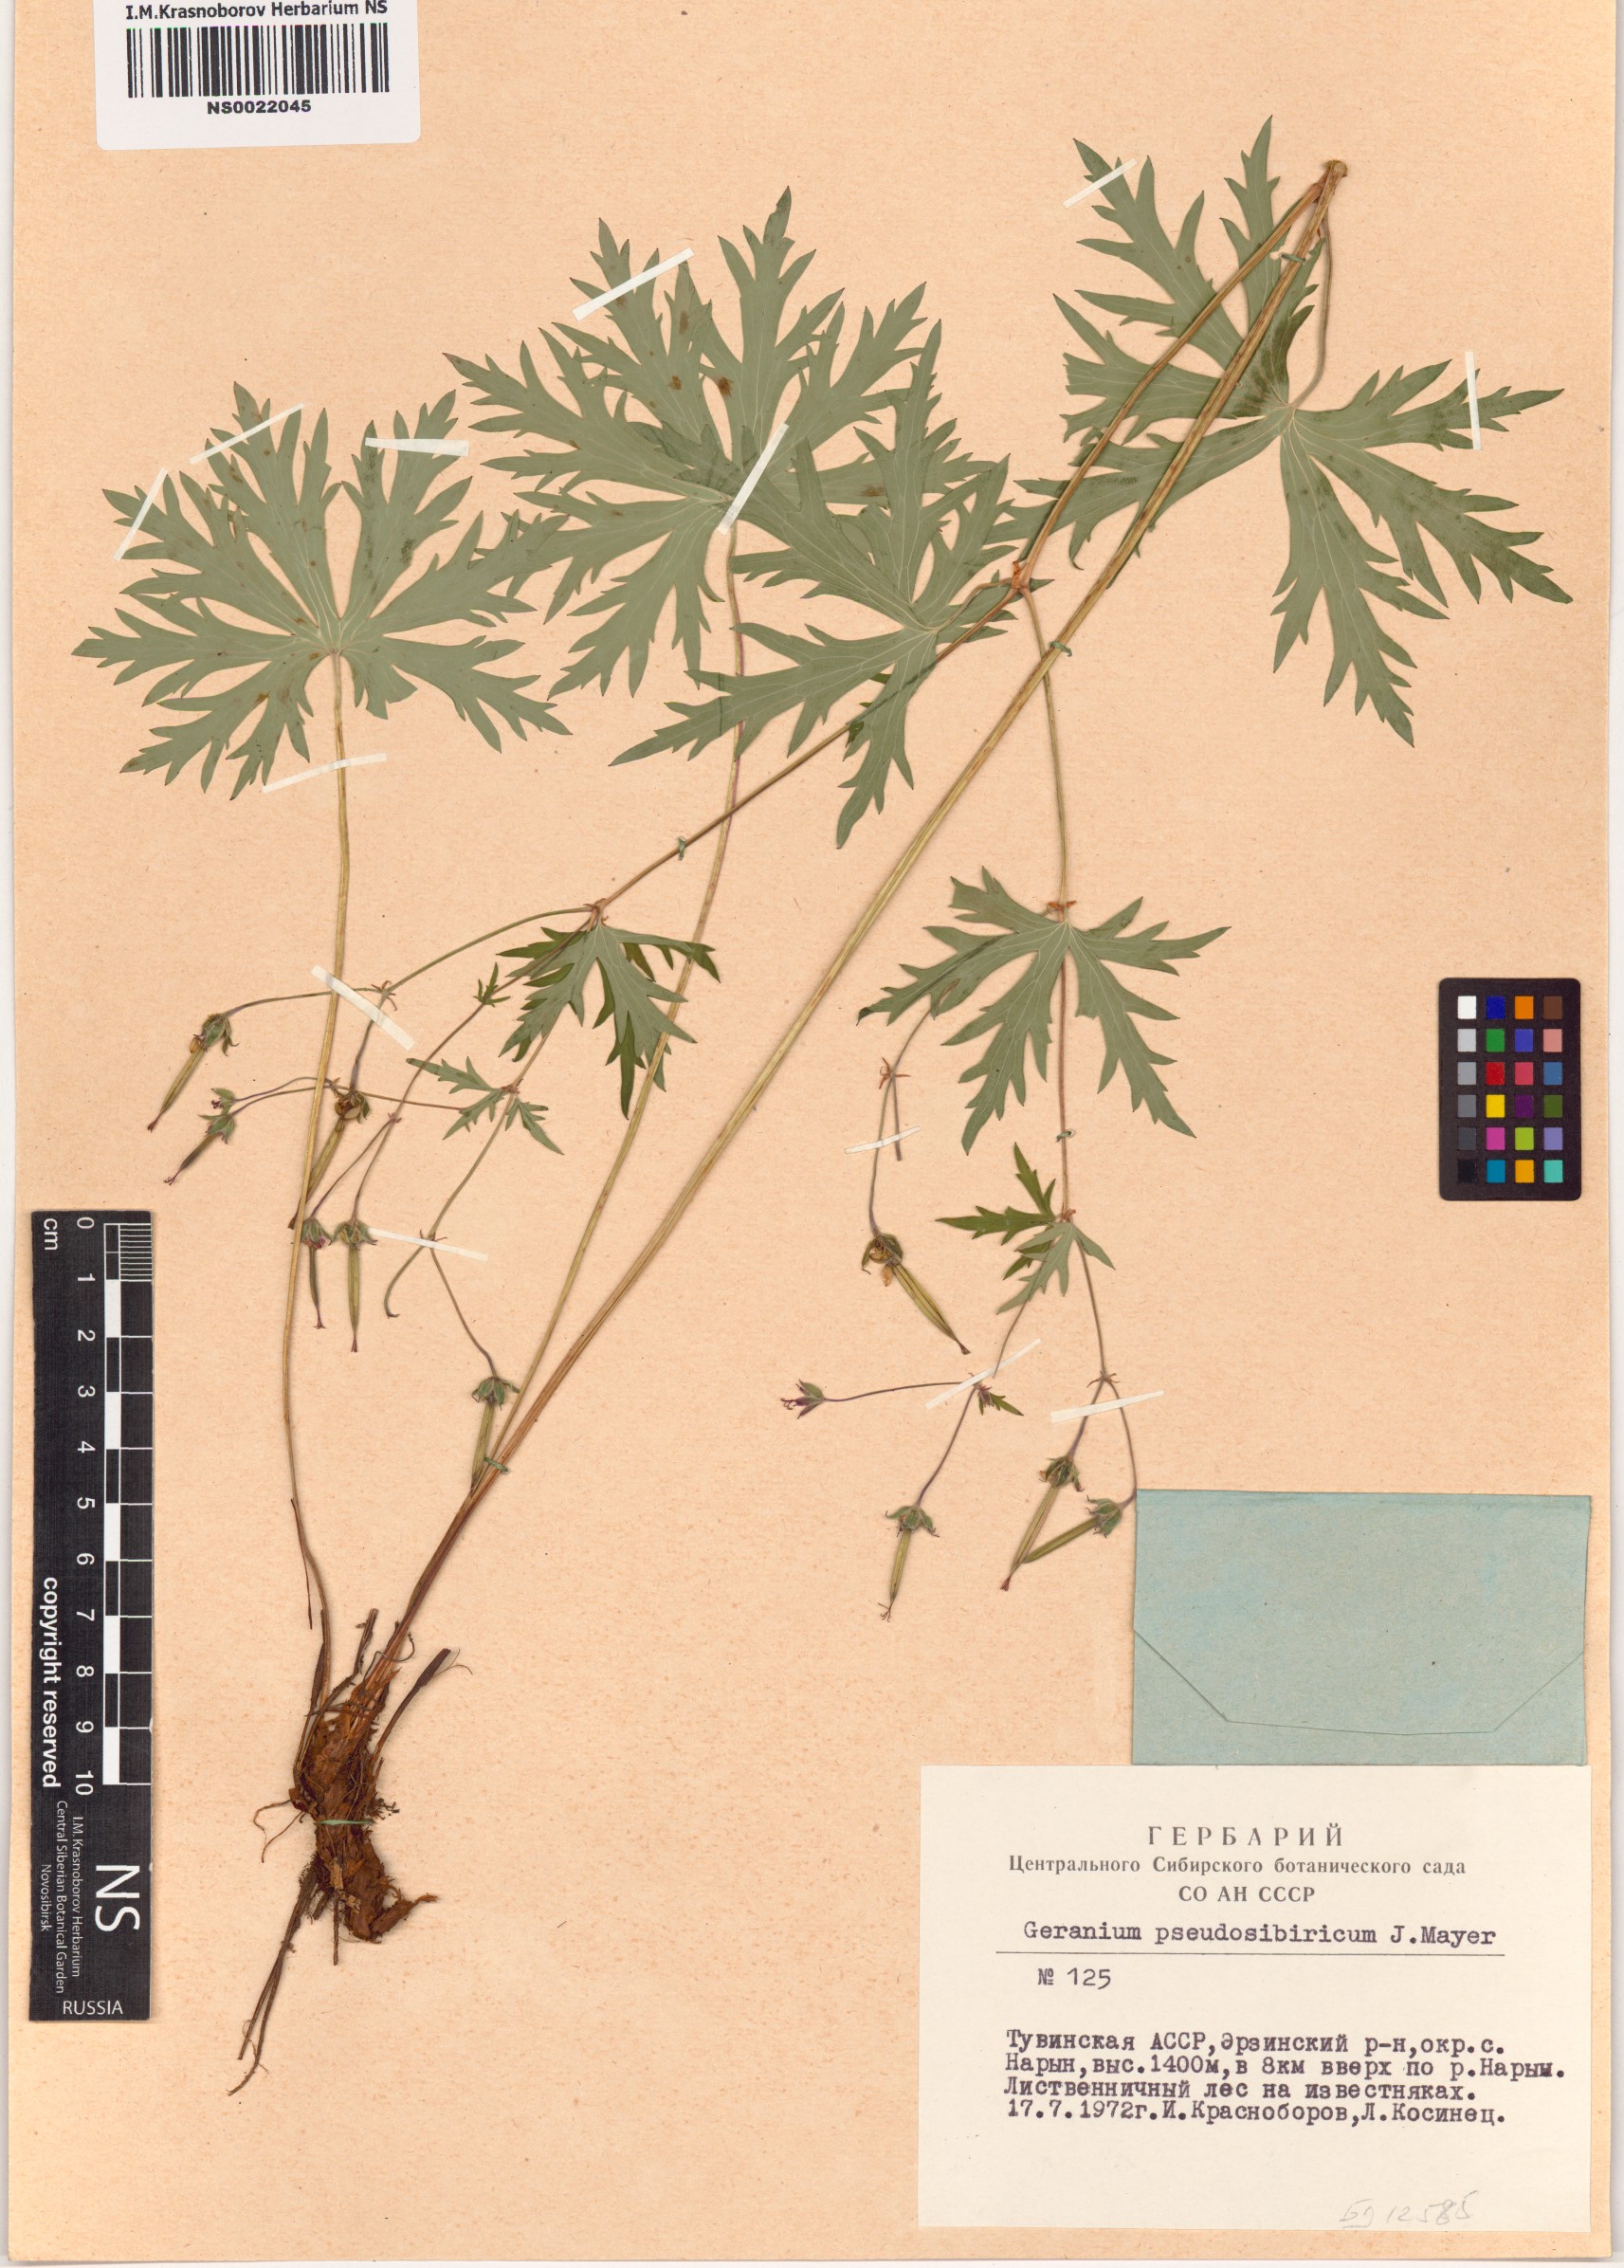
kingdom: Plantae
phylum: Tracheophyta
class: Magnoliopsida
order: Geraniales
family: Geraniaceae
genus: Geranium
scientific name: Geranium pseudosibiricum
